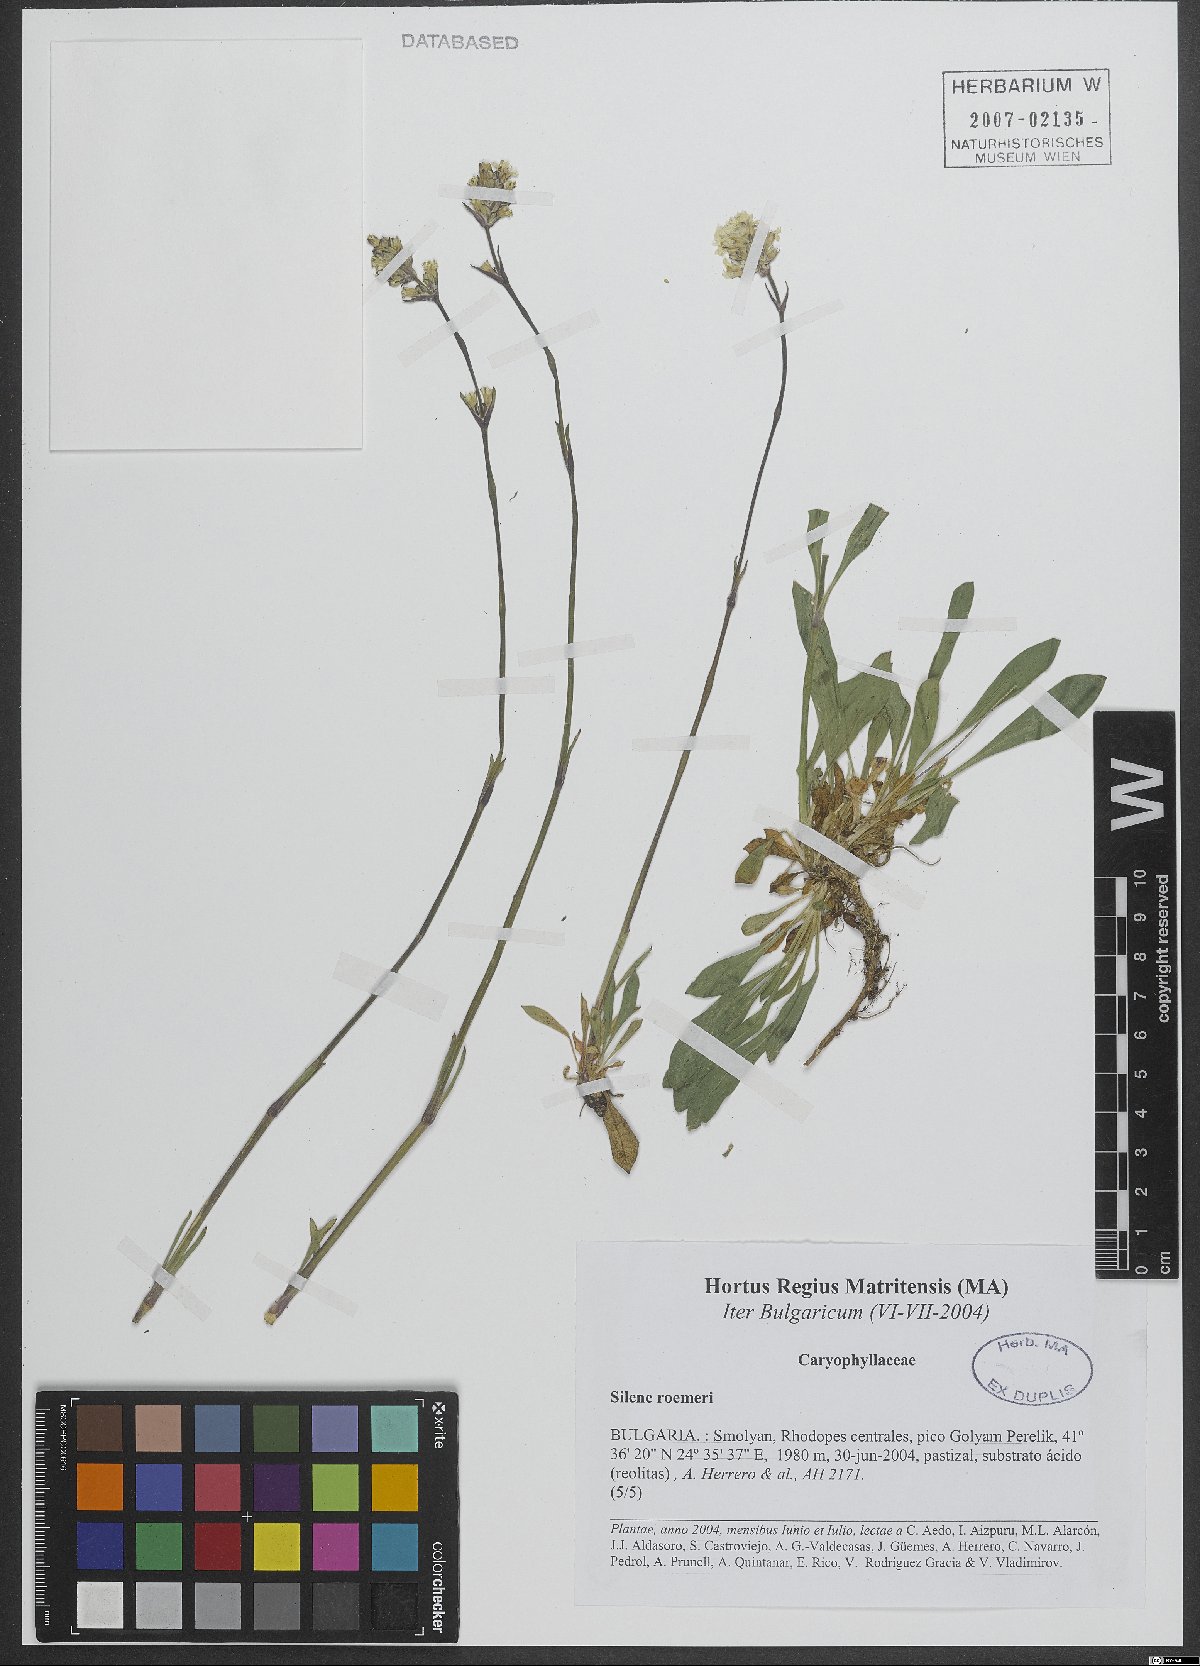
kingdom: Plantae
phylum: Tracheophyta
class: Magnoliopsida
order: Caryophyllales
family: Caryophyllaceae
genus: Silene
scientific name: Silene roemeri
